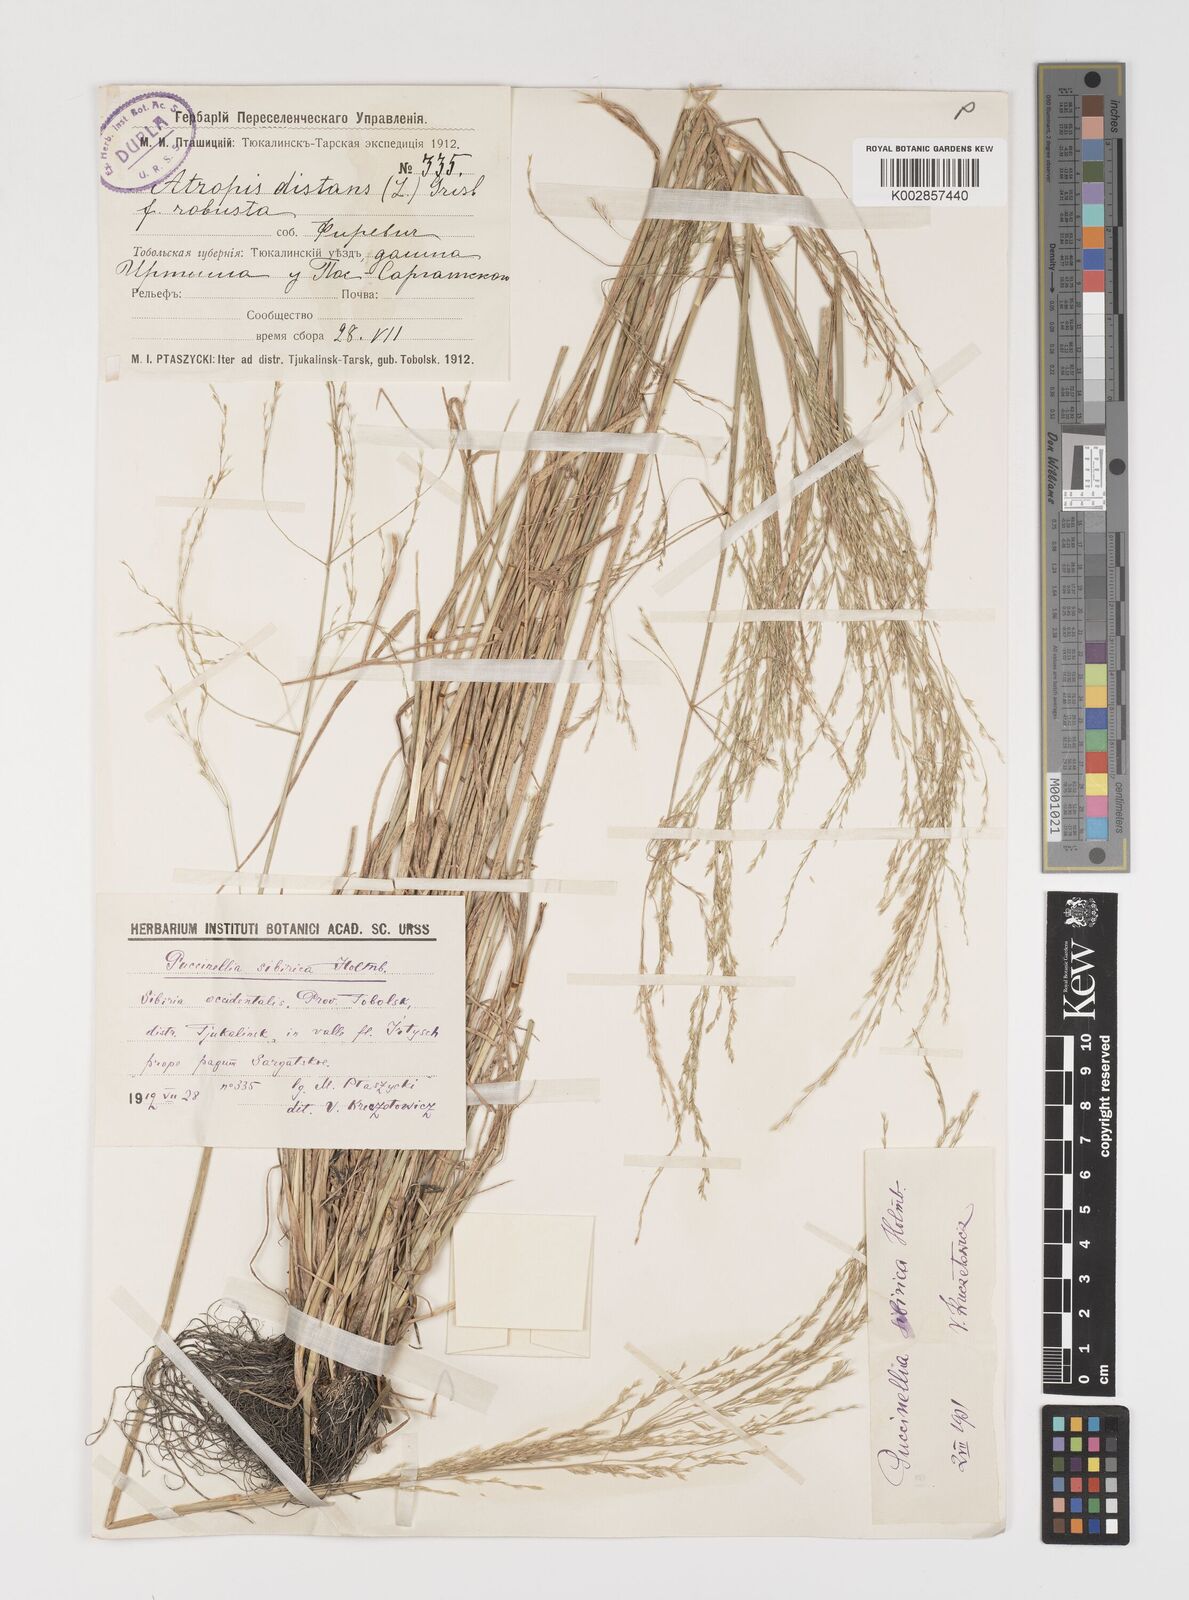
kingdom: Plantae
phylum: Tracheophyta
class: Liliopsida
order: Poales
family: Poaceae
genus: Puccinellia
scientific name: Puccinellia distans
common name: Weeping alkaligrass
